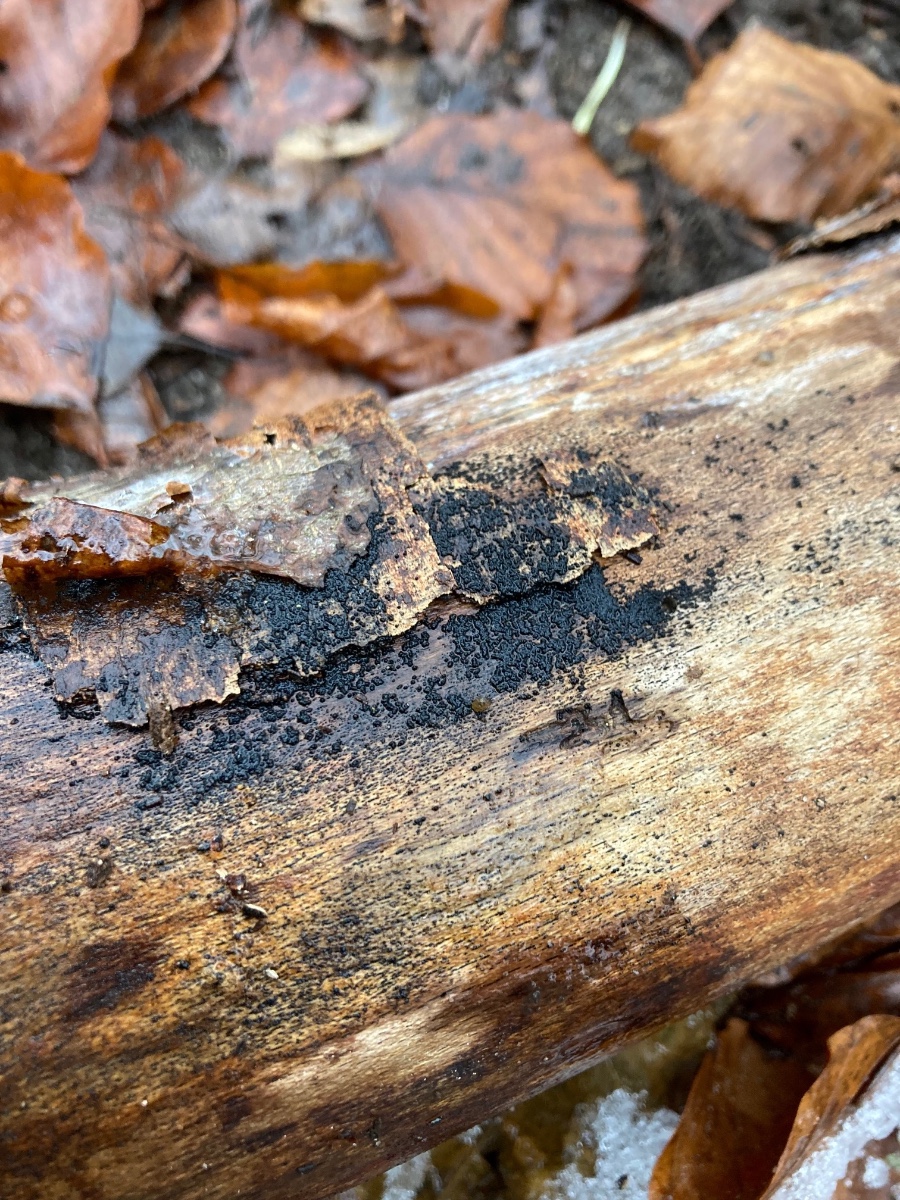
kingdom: Fungi
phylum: Ascomycota
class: Dothideomycetes
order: Pleosporales
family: Melanommataceae
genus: Melanomma
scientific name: Melanomma pulvis-pyrius
